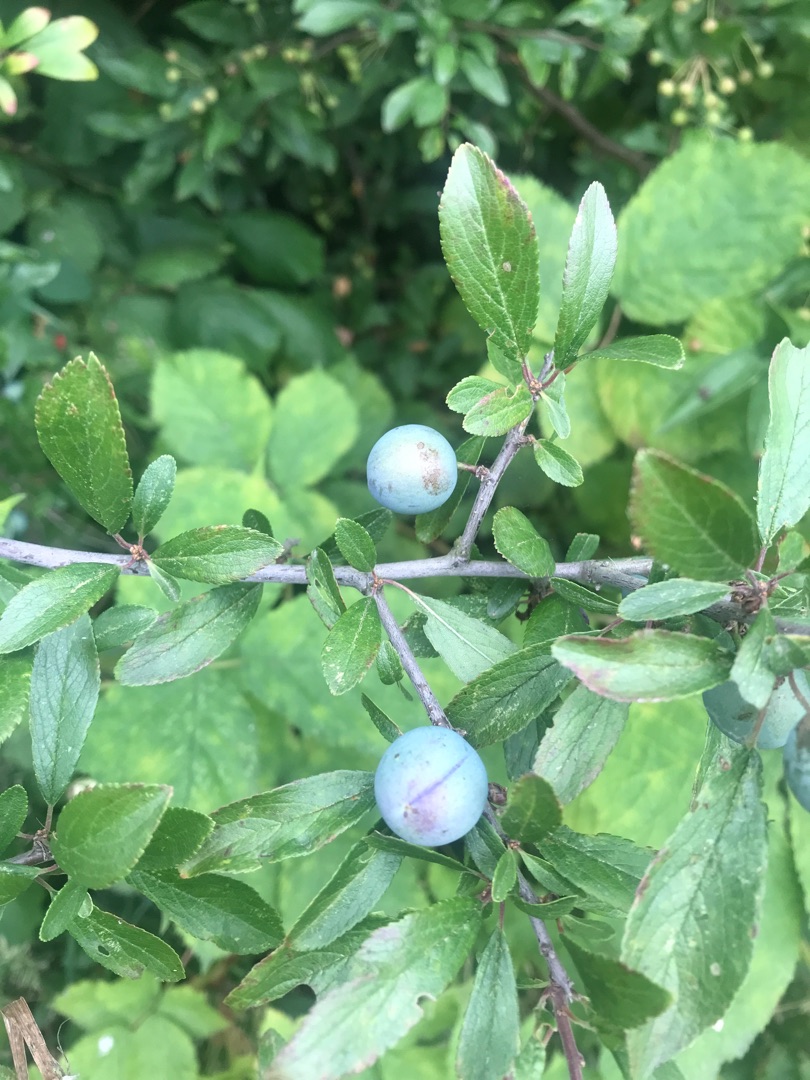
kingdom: Plantae
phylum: Tracheophyta
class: Magnoliopsida
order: Rosales
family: Rosaceae
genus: Prunus
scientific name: Prunus spinosa
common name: Slåen
